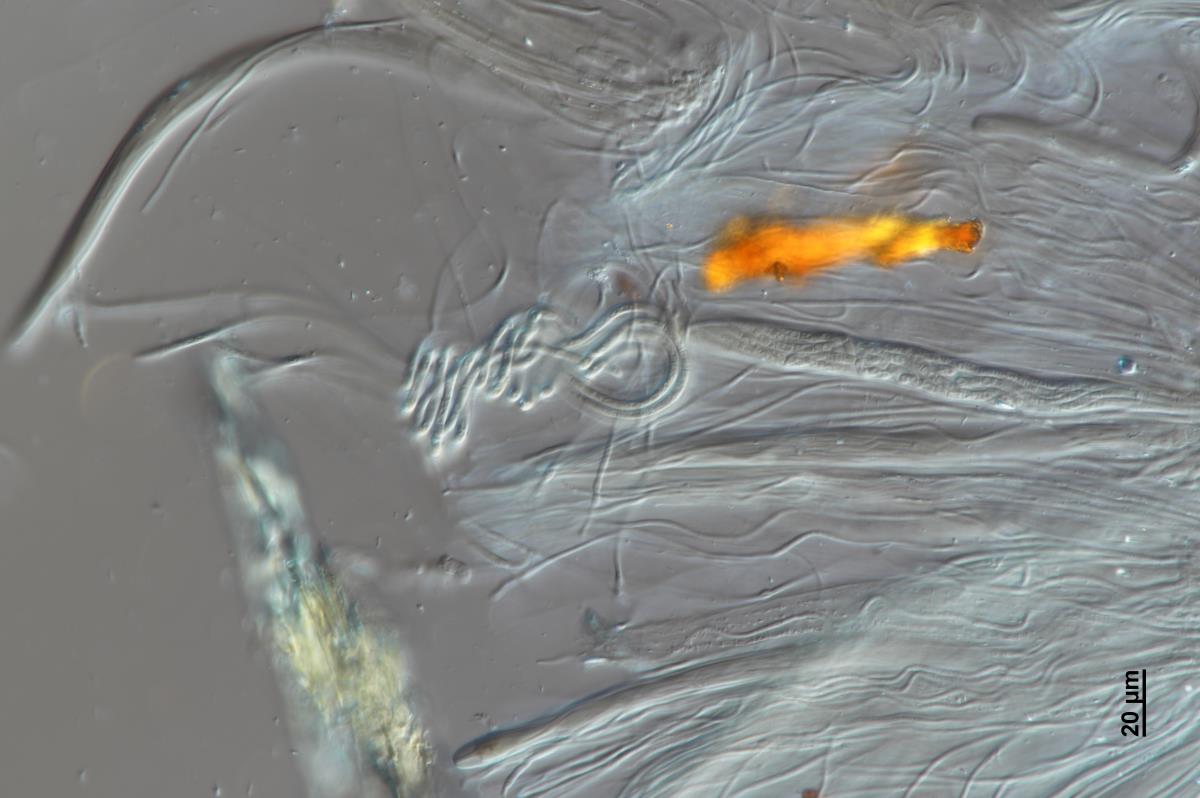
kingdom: Fungi
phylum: Ascomycota
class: Lecanoromycetes
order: Ostropales
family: Stictidaceae
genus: Stictis
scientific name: Stictis serpentaria
